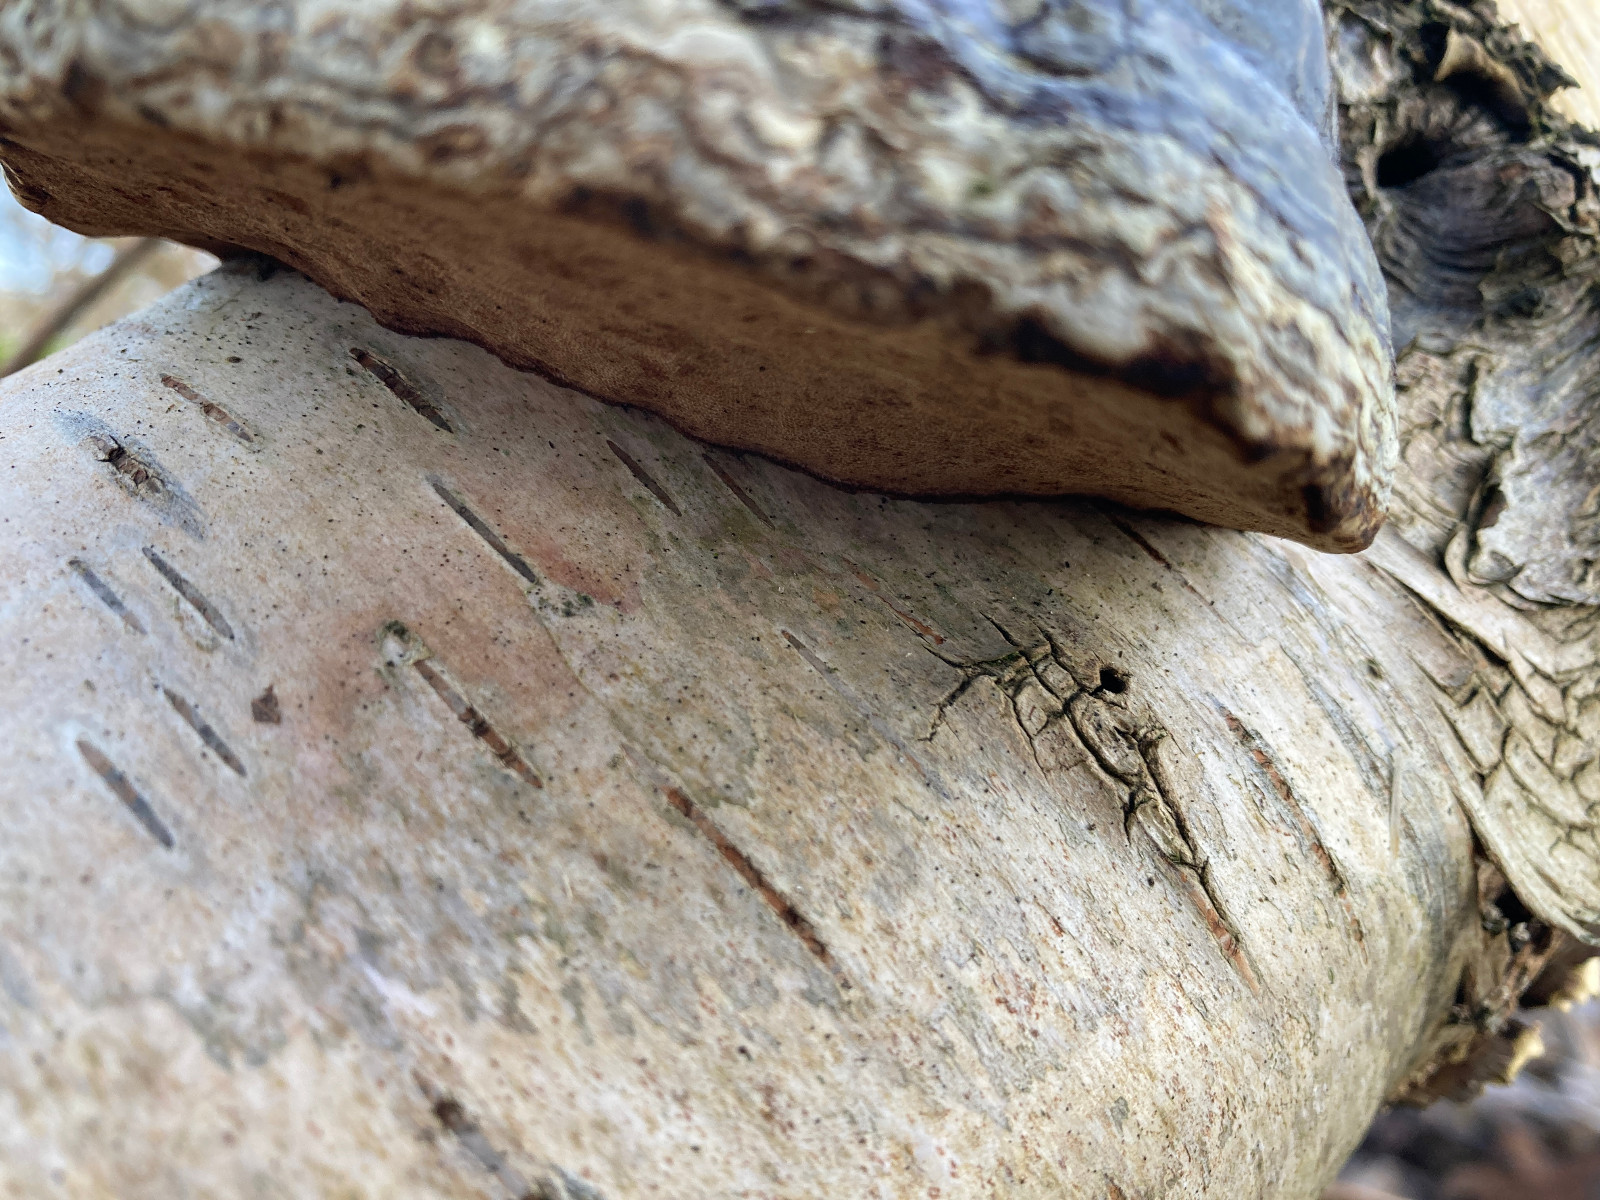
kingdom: Fungi
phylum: Basidiomycota
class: Agaricomycetes
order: Polyporales
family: Polyporaceae
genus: Fomes
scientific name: Fomes fomentarius
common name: tøndersvamp
